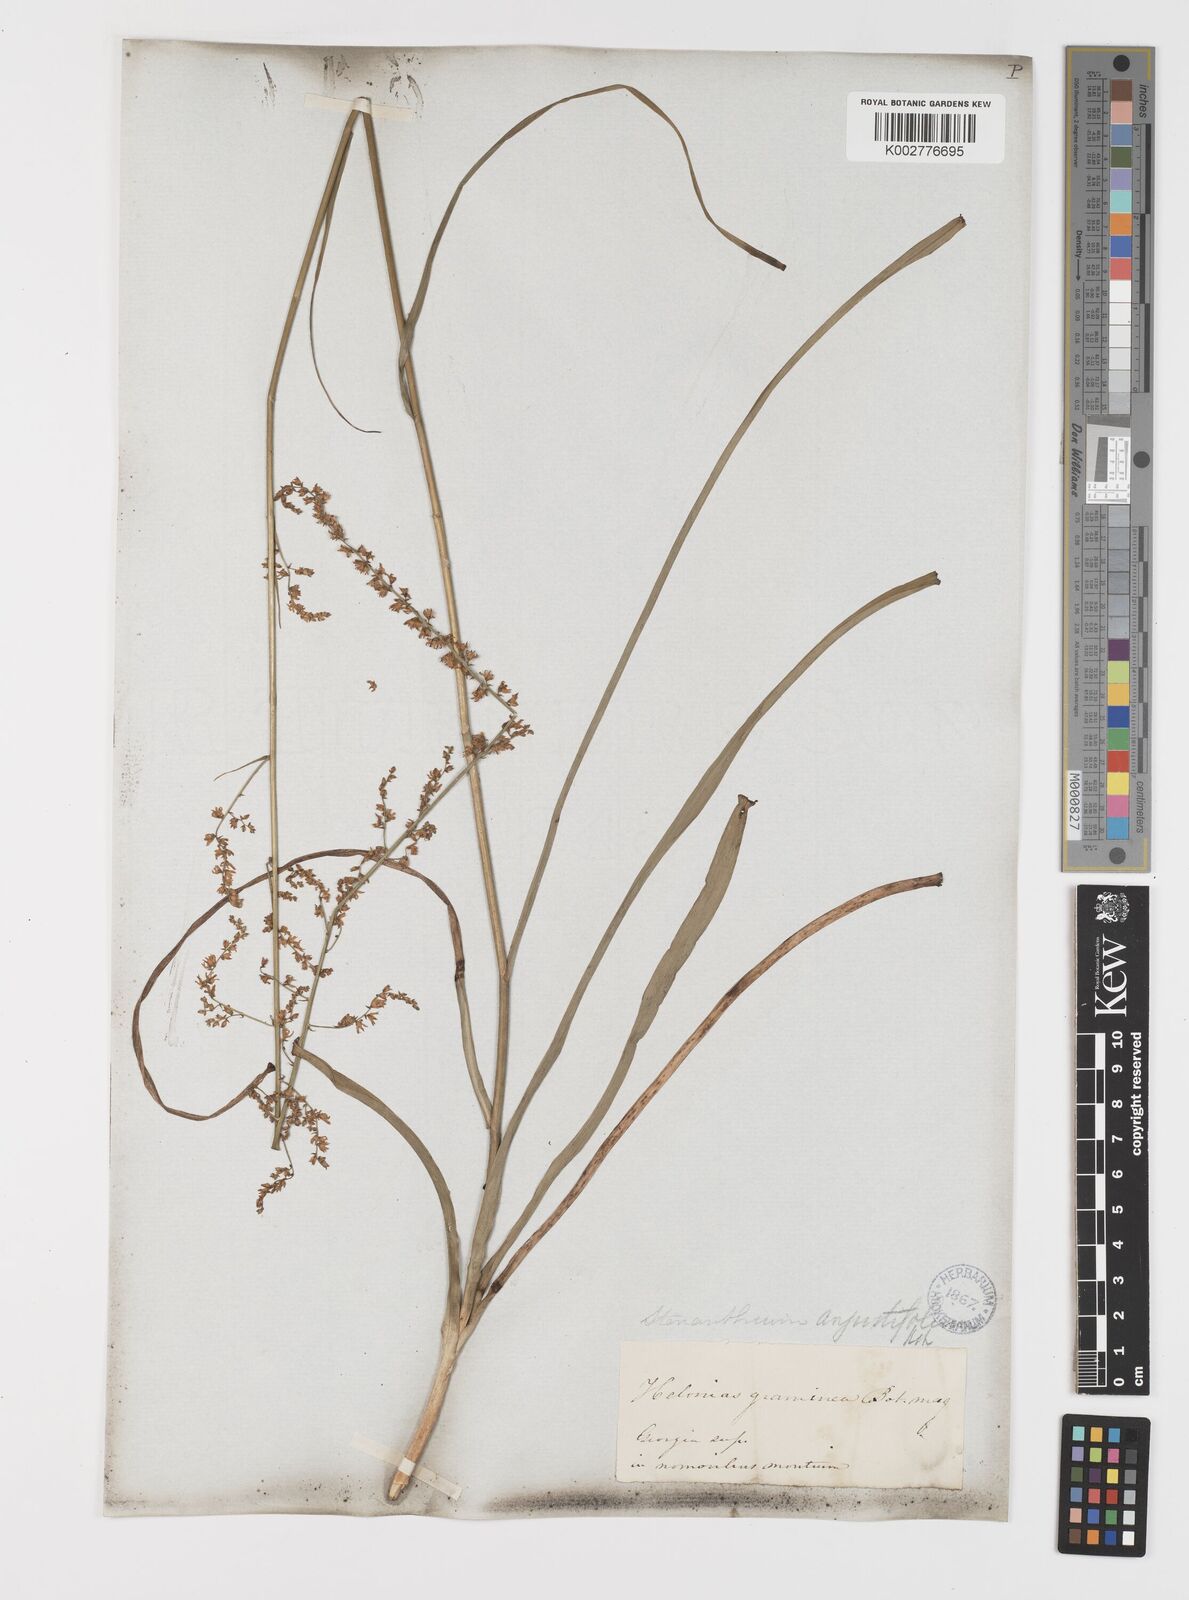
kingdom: Plantae
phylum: Tracheophyta
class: Liliopsida
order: Liliales
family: Melanthiaceae
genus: Stenanthium
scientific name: Stenanthium gramineum
